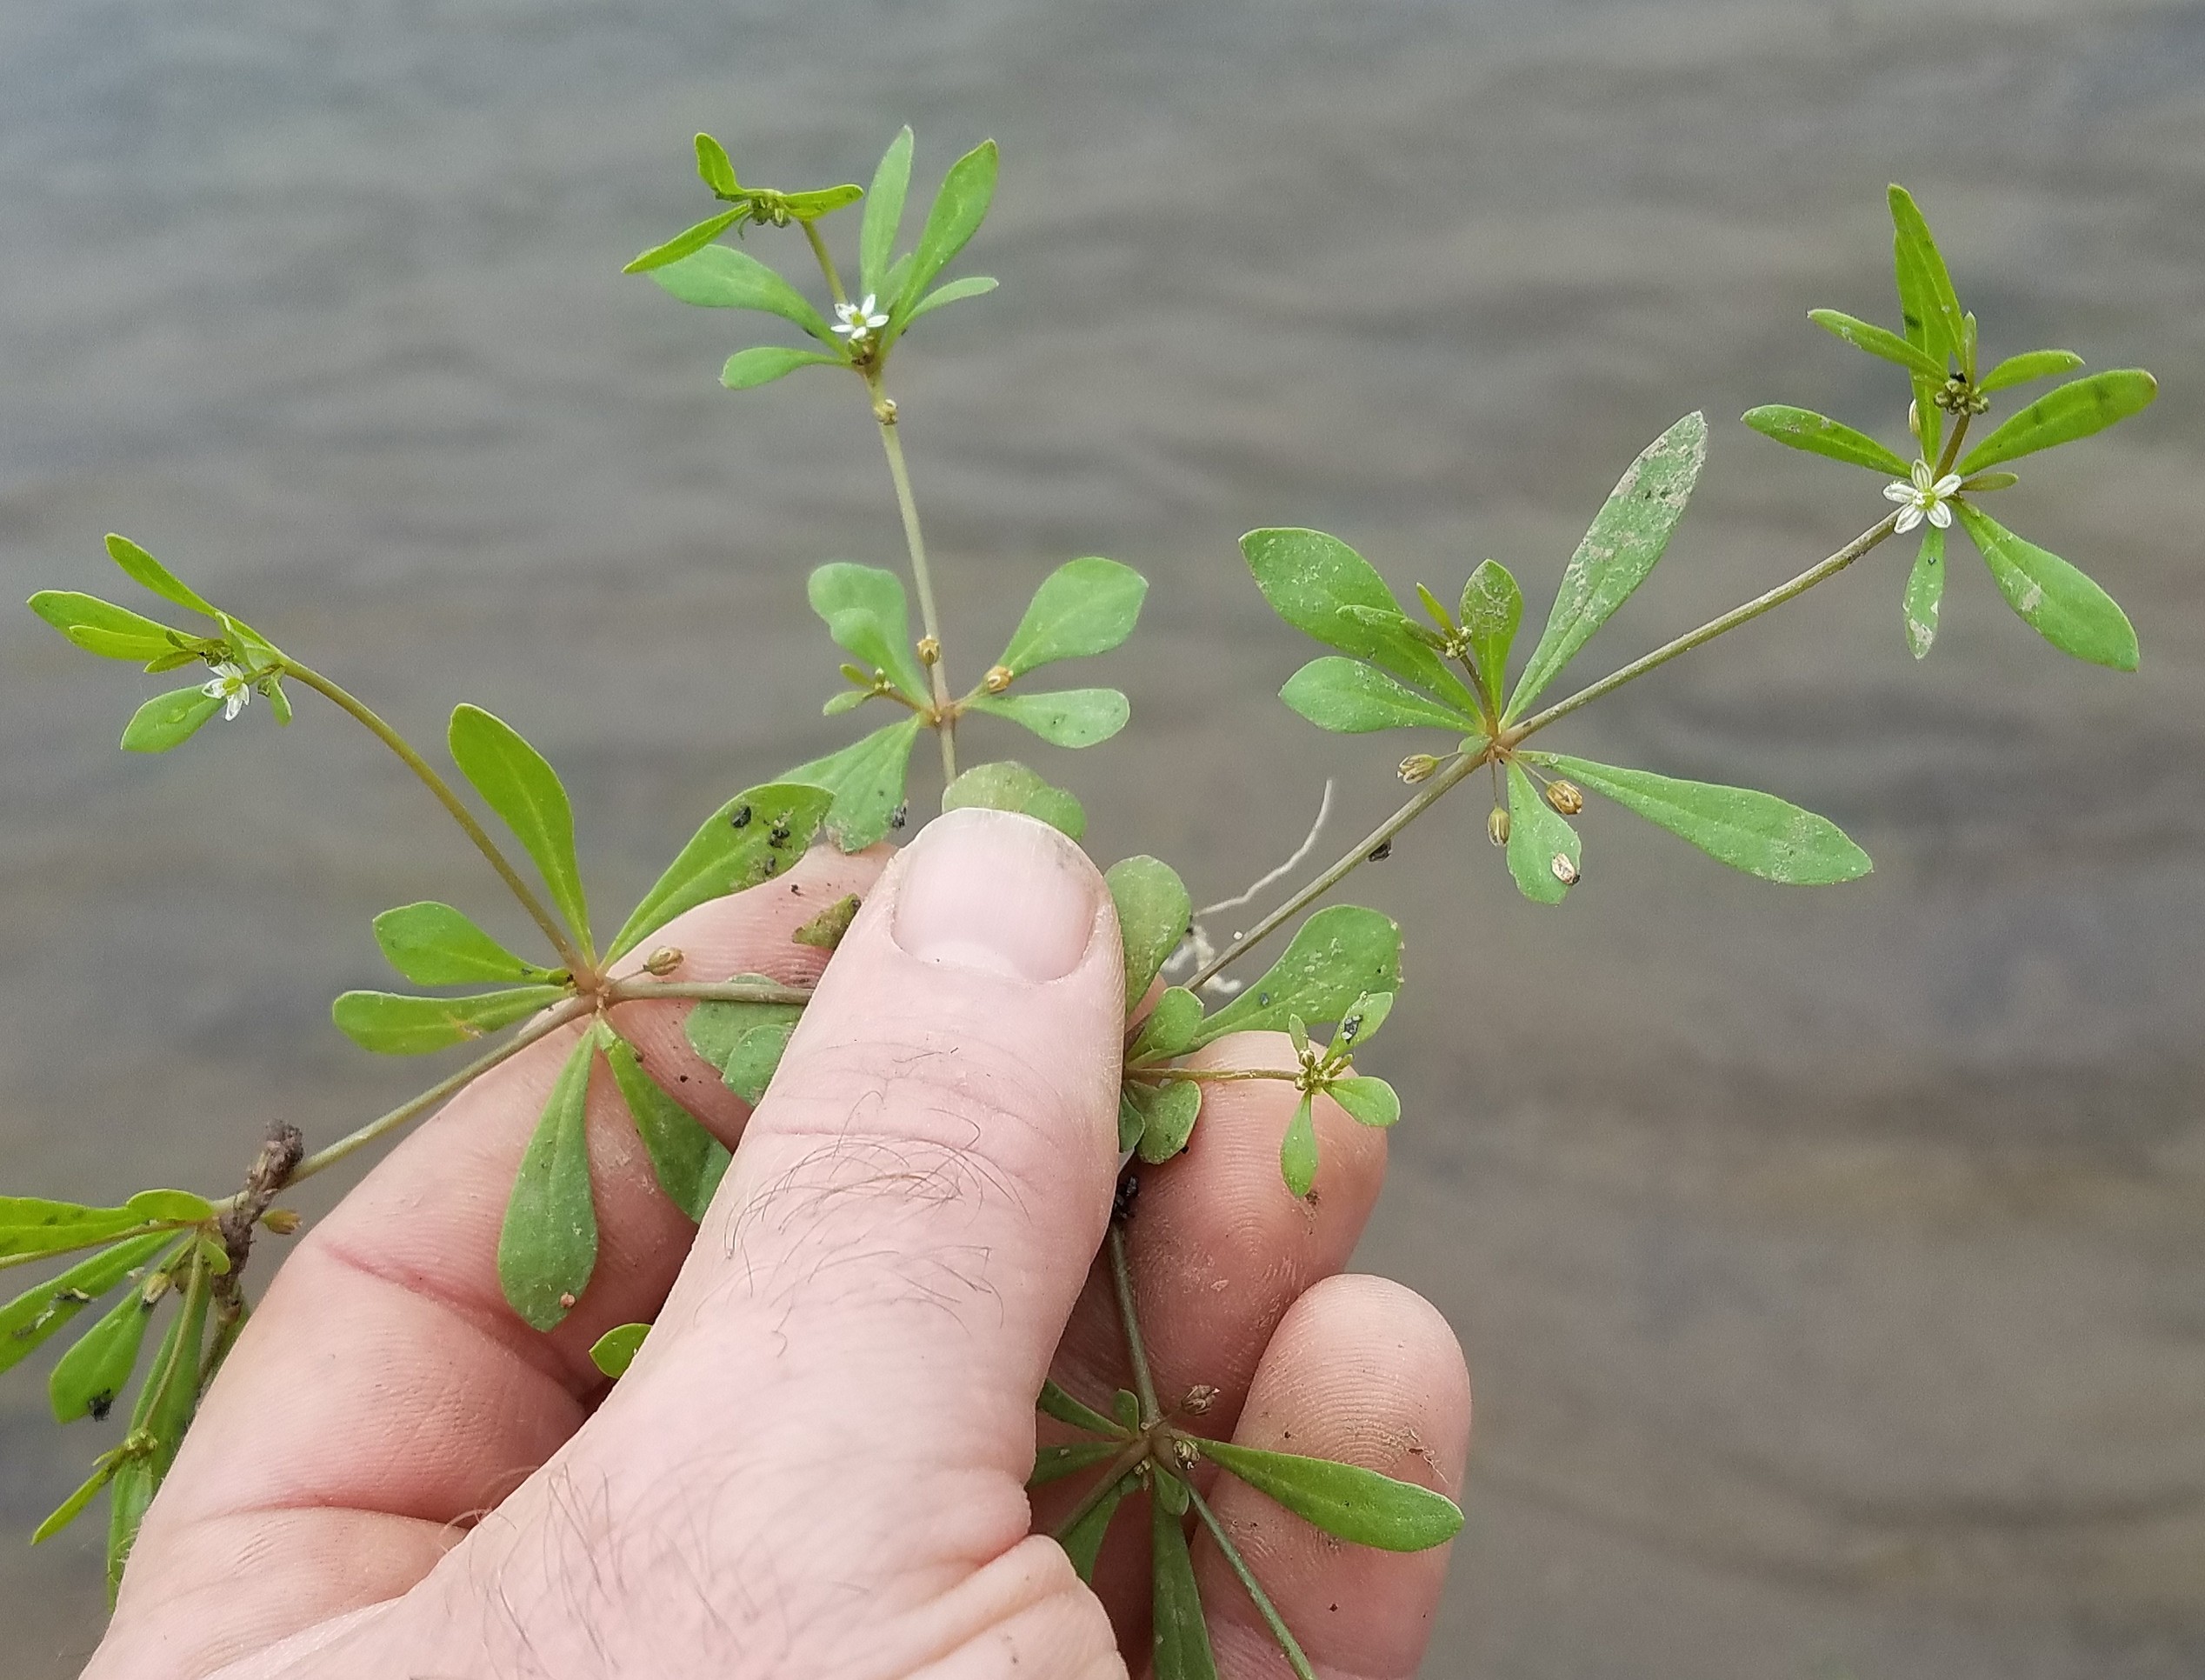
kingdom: Plantae
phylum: Tracheophyta
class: Magnoliopsida
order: Caryophyllales
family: Molluginaceae
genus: Mollugo
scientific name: Mollugo verticillata
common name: Carpetweed
